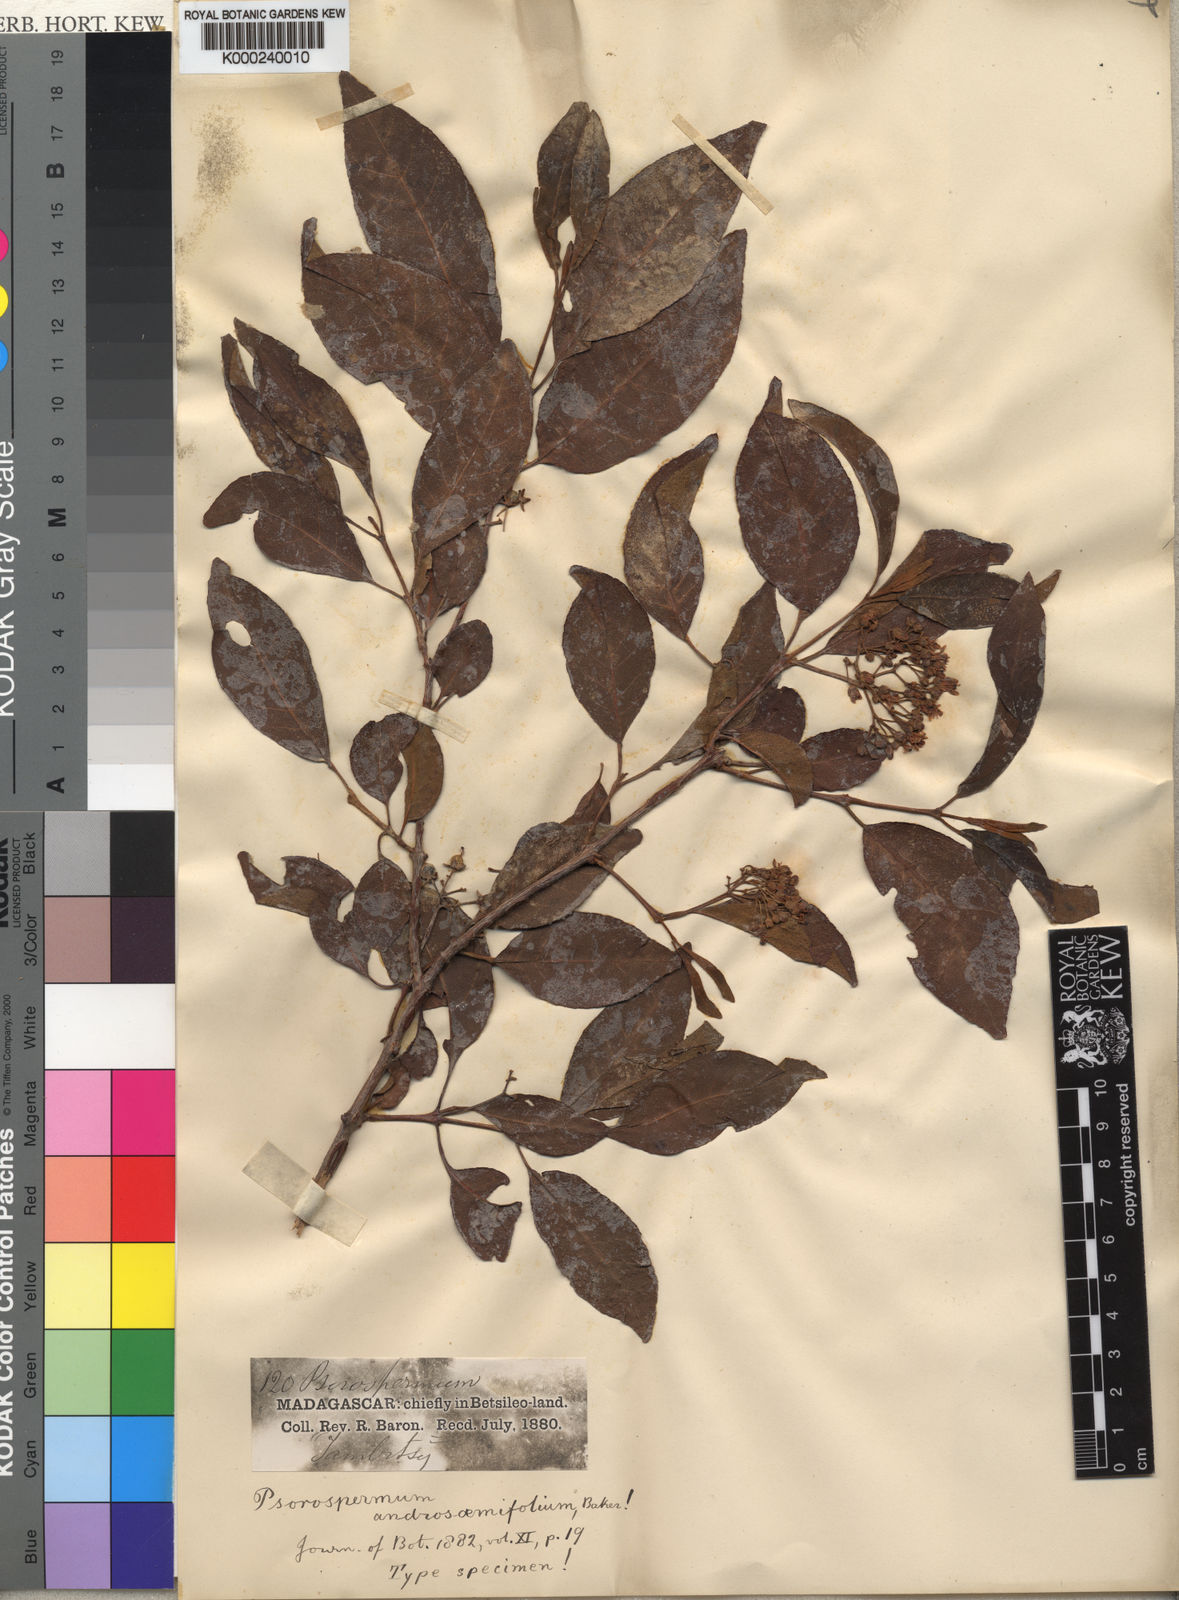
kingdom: Plantae
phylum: Tracheophyta
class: Magnoliopsida
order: Malpighiales
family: Hypericaceae
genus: Psorospermum
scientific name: Psorospermum androsaemifolium
